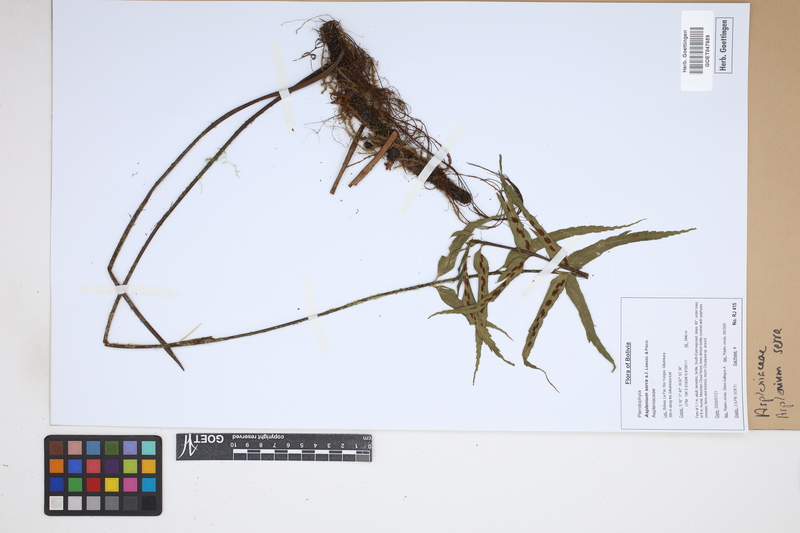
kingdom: Plantae
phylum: Tracheophyta
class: Polypodiopsida
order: Polypodiales
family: Aspleniaceae
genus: Asplenium
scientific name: Asplenium serra
